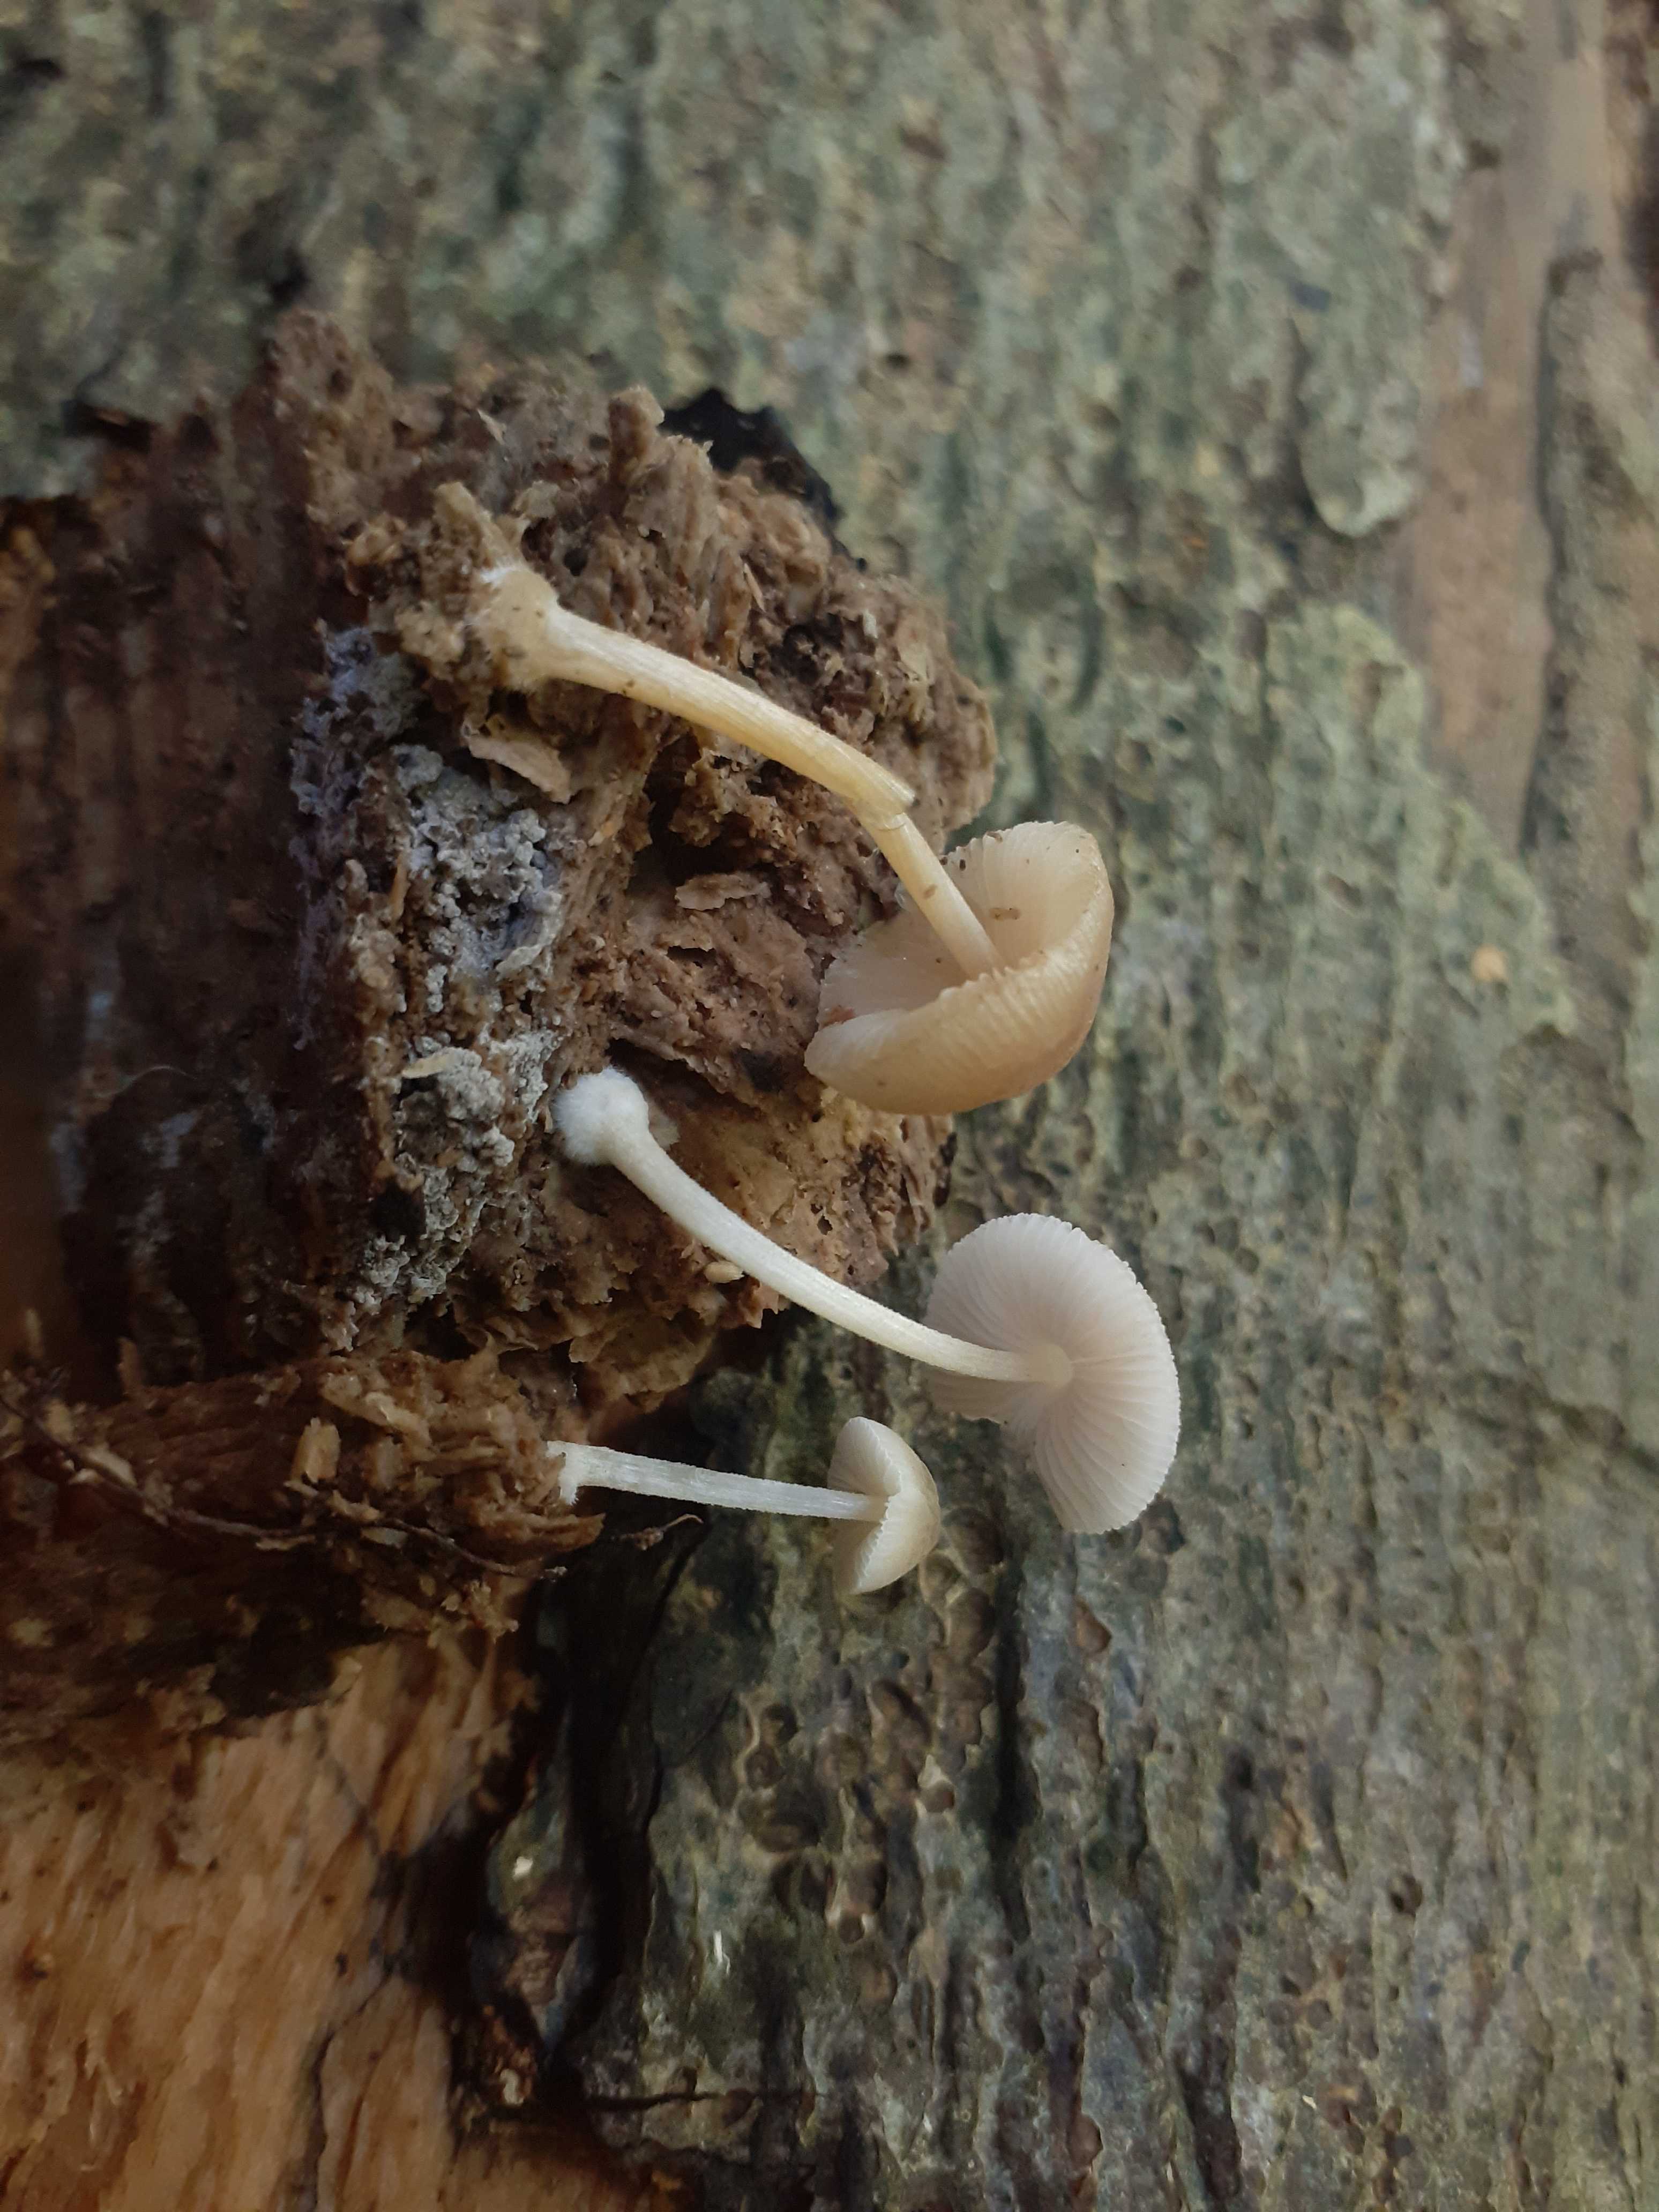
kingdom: Fungi
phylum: Basidiomycota
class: Agaricomycetes
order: Agaricales
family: Pluteaceae
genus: Pluteus
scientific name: Pluteus semibulbosus
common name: knoldet skærmhat
